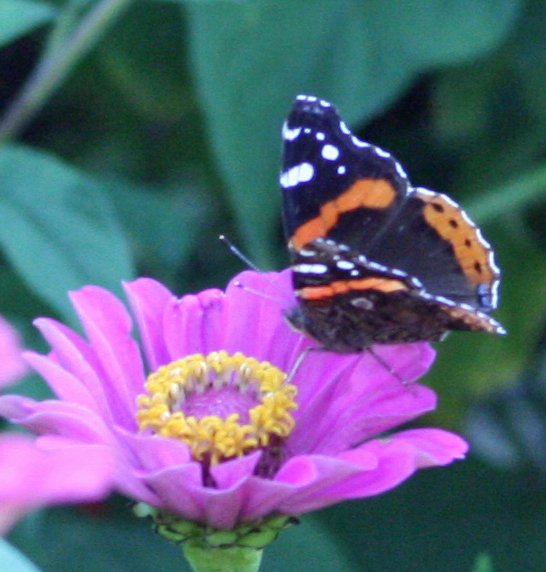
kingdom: Animalia
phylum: Arthropoda
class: Insecta
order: Lepidoptera
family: Nymphalidae
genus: Vanessa
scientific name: Vanessa atalanta
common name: Red Admiral
